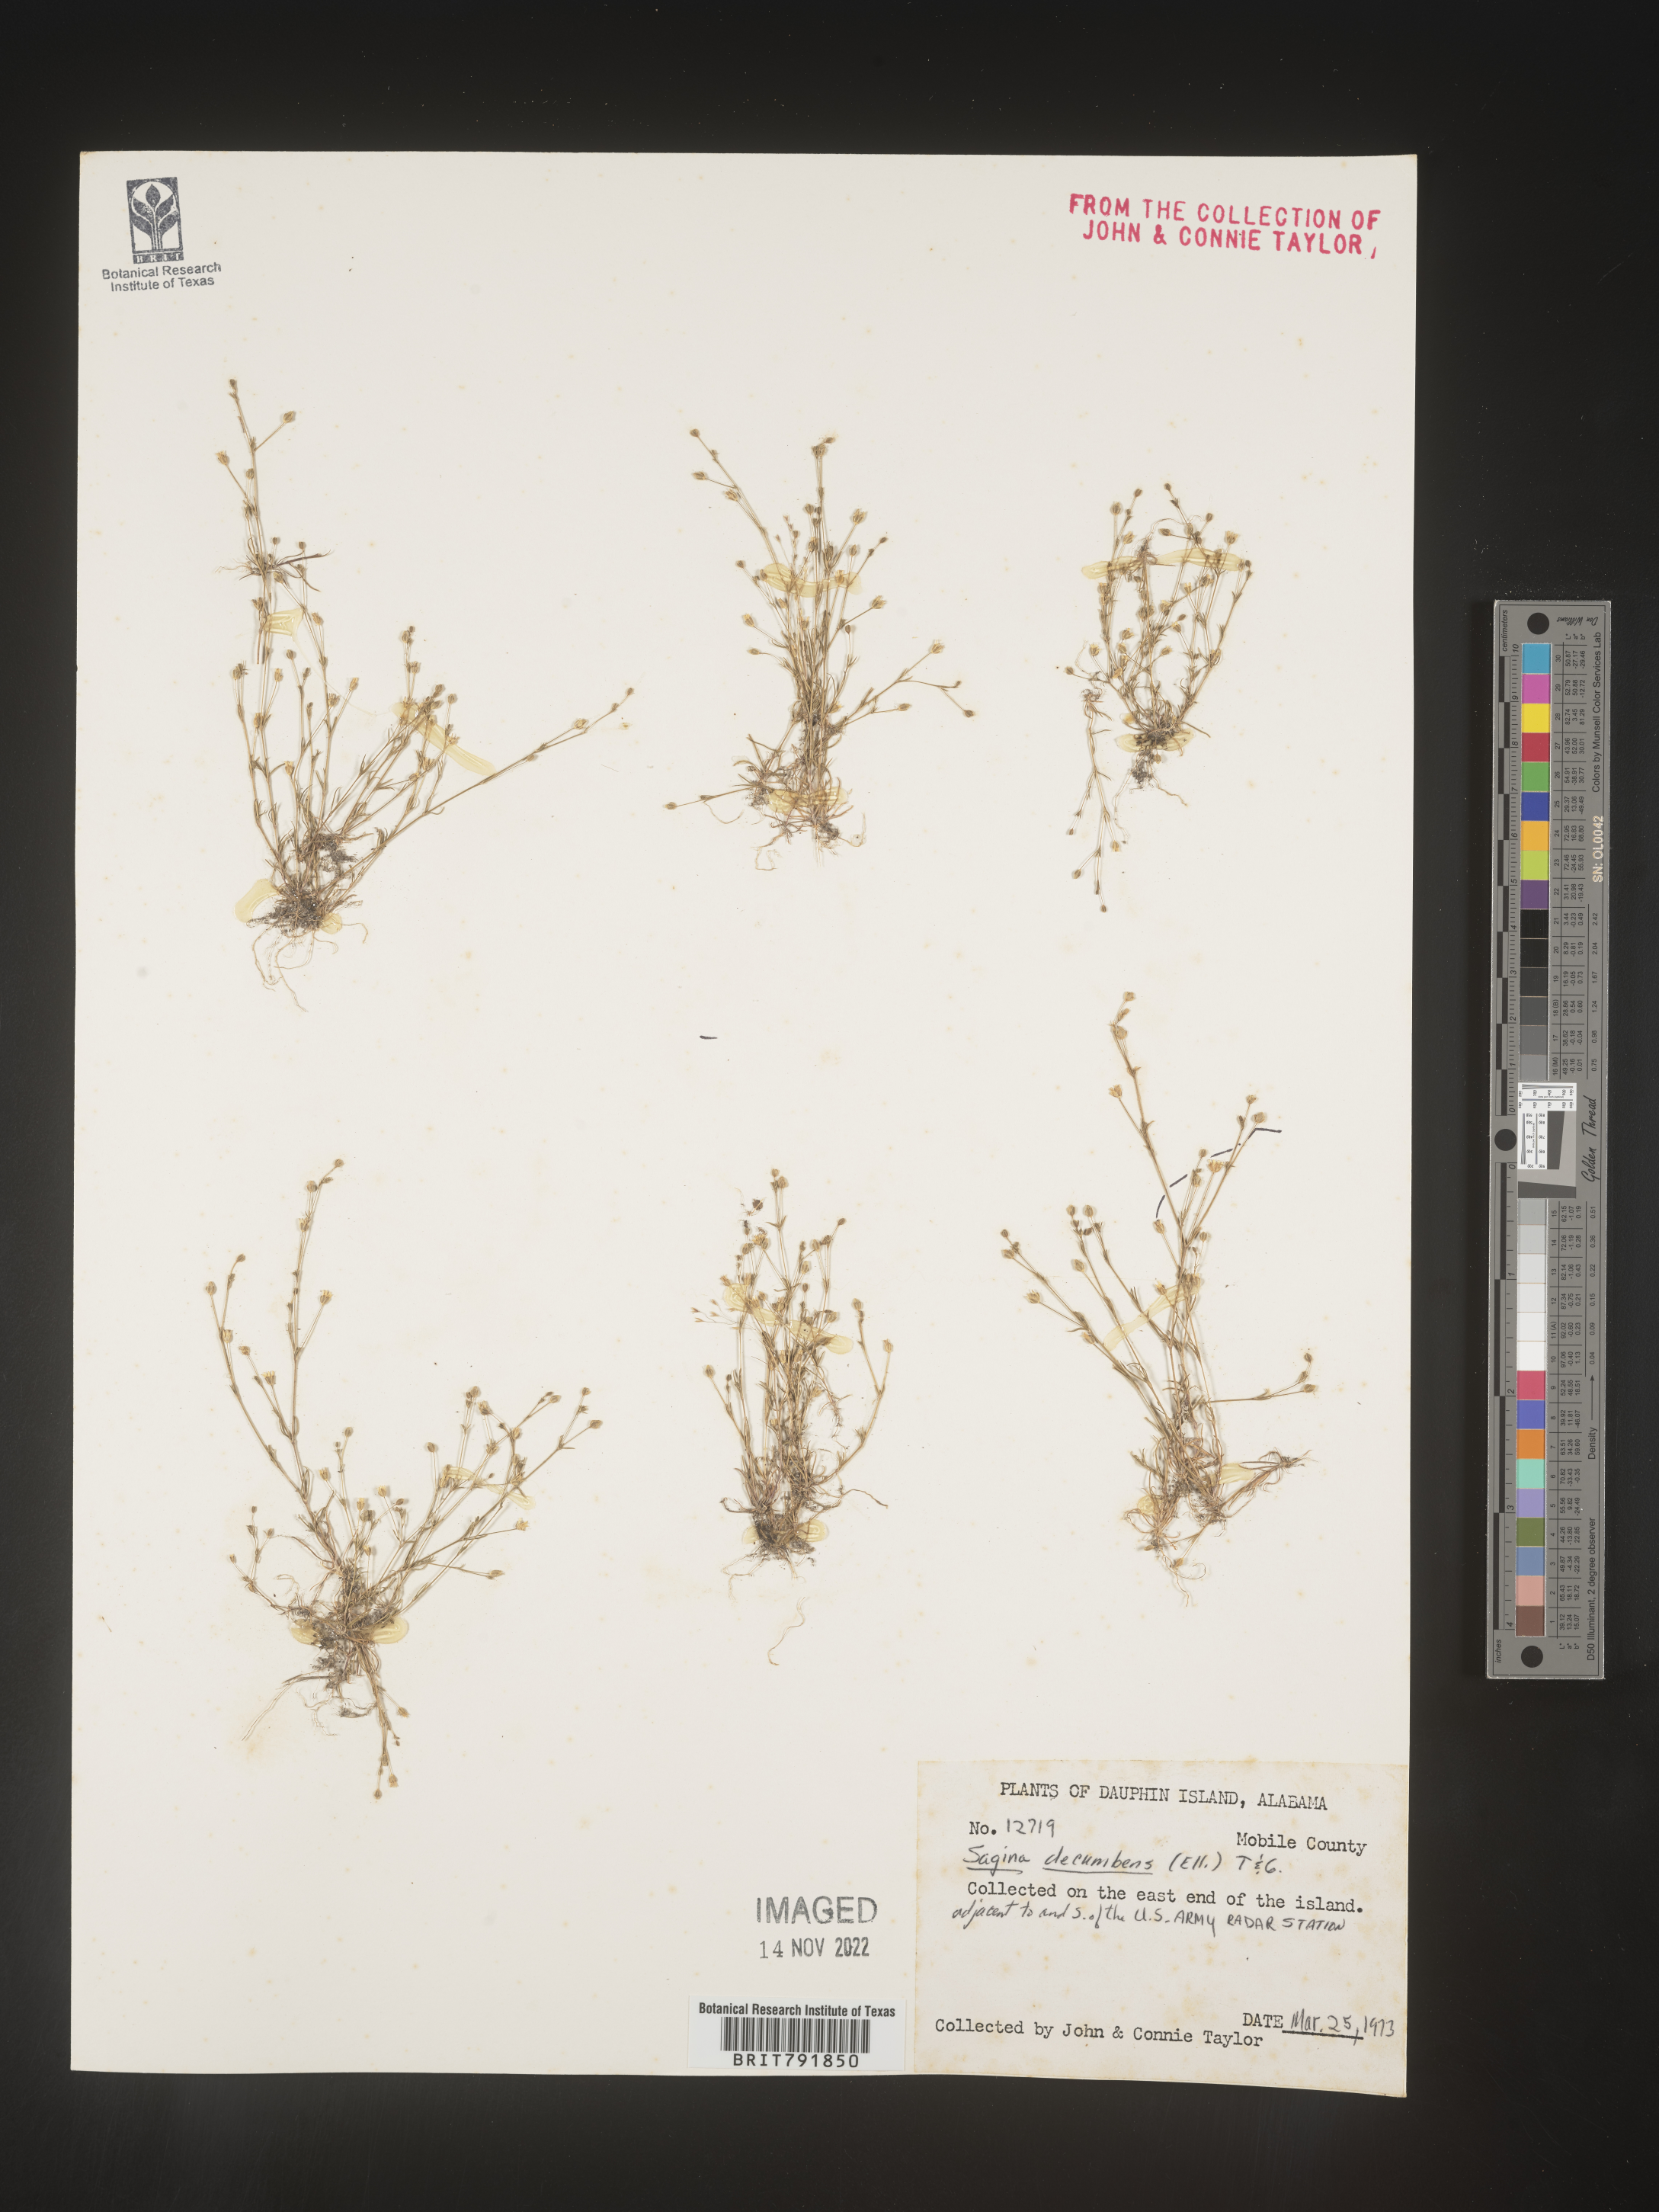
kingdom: Plantae
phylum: Tracheophyta
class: Magnoliopsida
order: Caryophyllales
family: Caryophyllaceae
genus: Sagina
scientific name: Sagina decumbens
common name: Decumbent pearlwort
